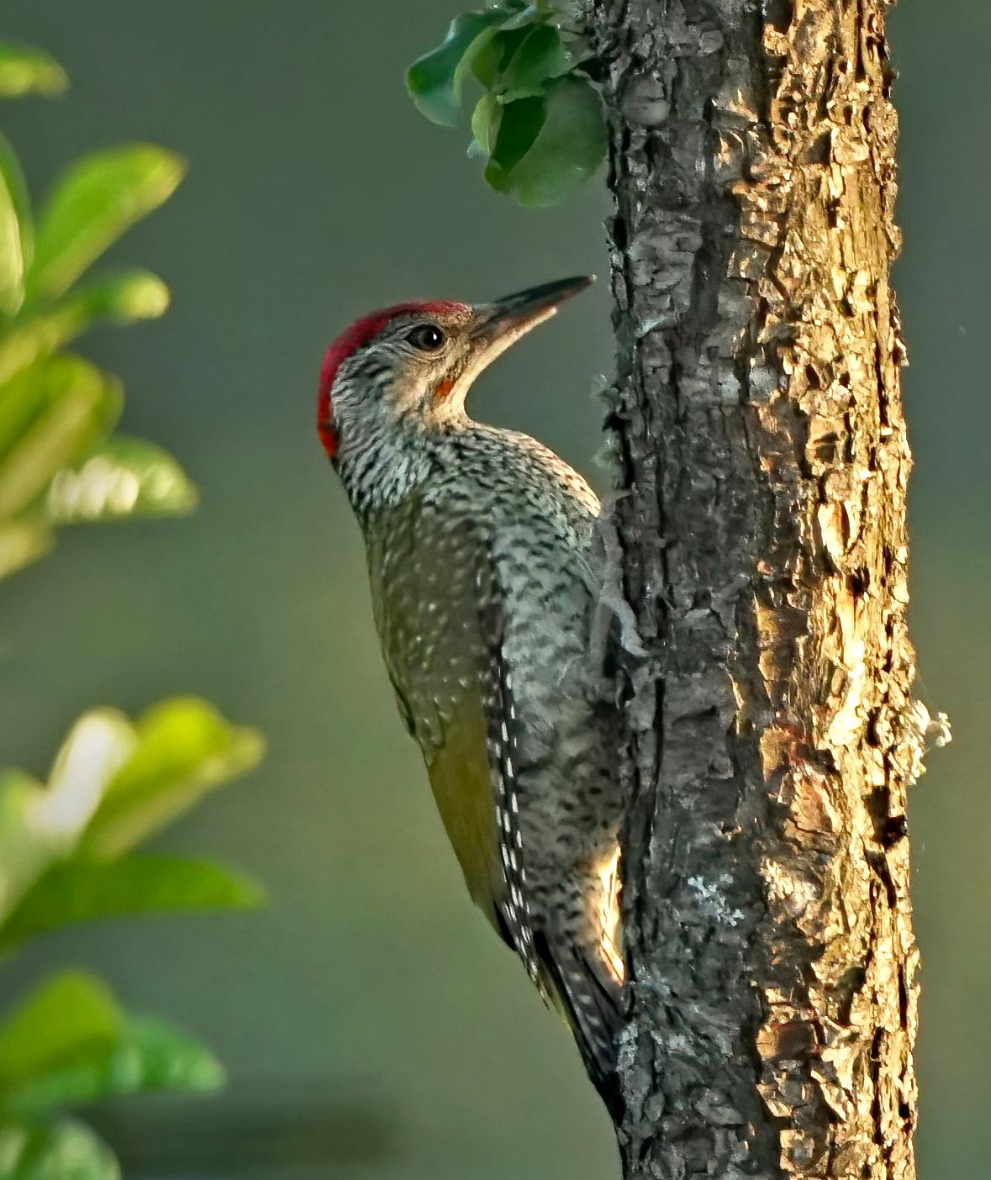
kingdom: Animalia
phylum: Chordata
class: Aves
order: Piciformes
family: Picidae
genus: Picus
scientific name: Picus viridis
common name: Grønspætte
